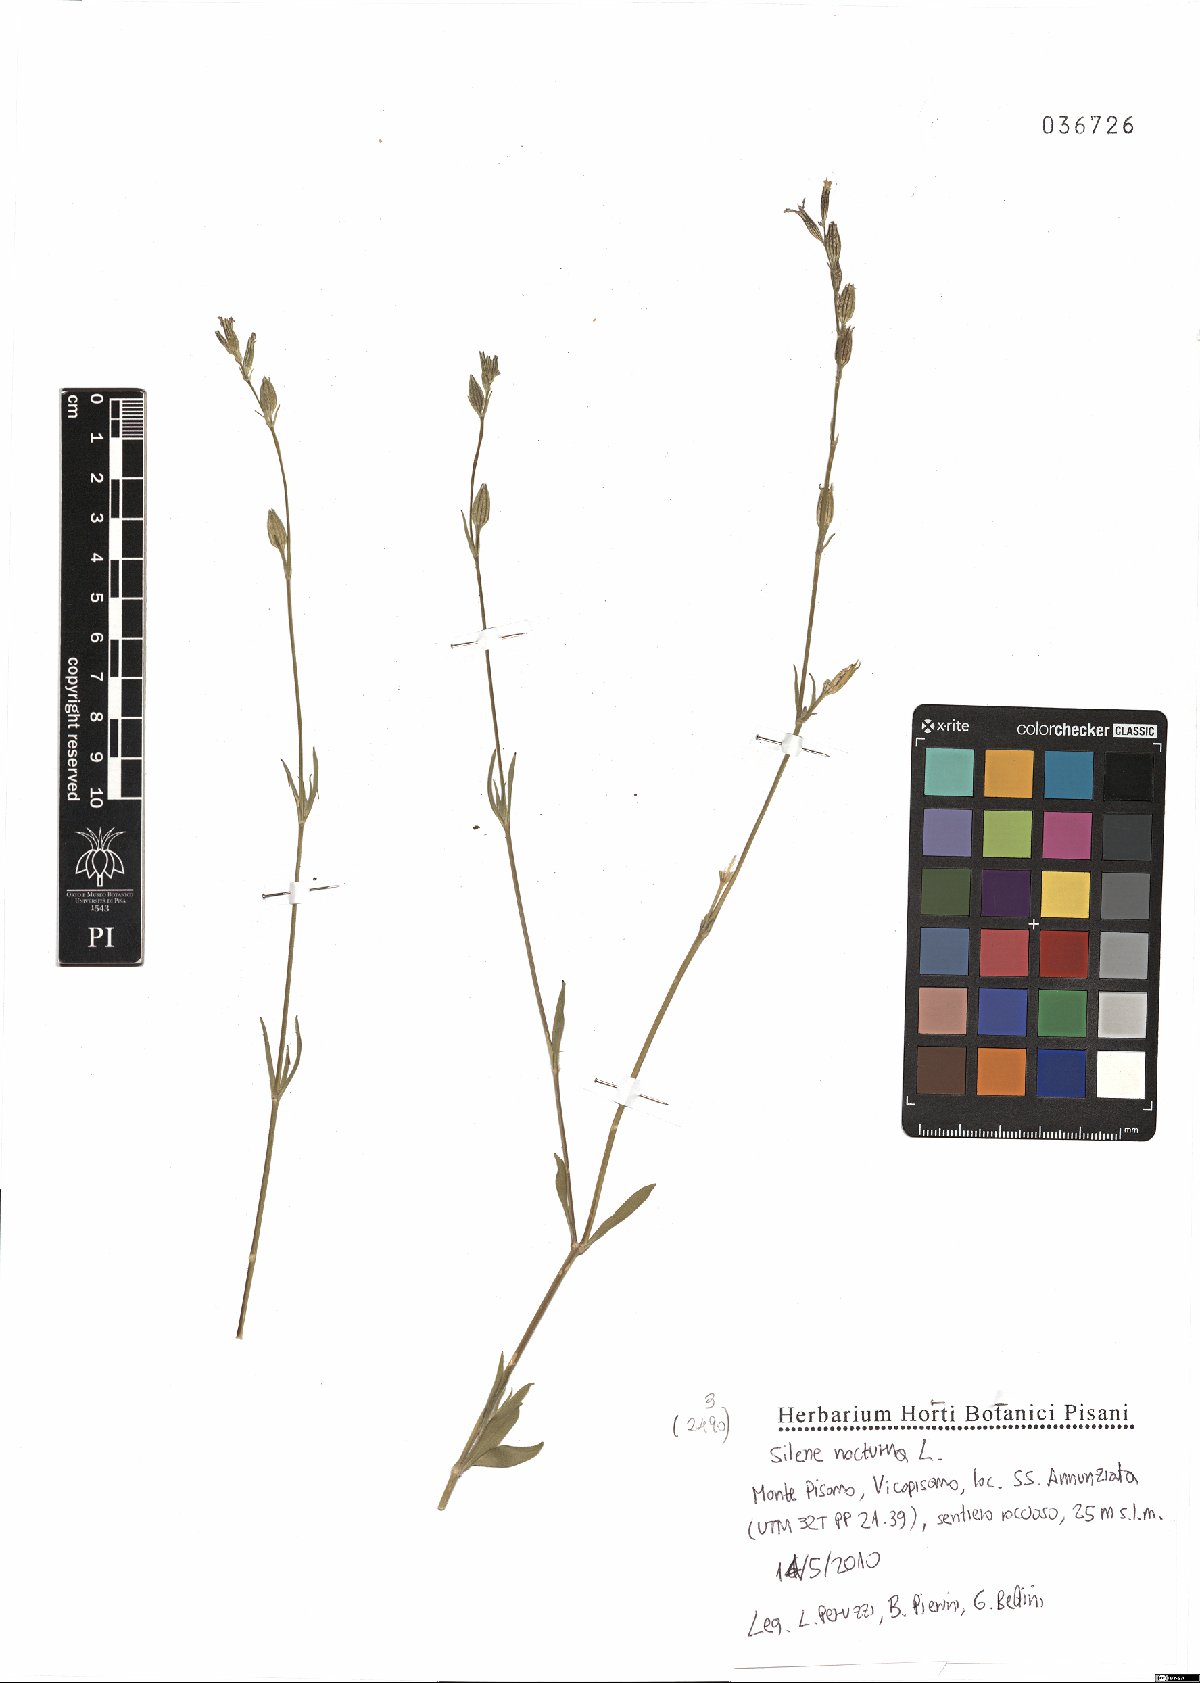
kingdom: Plantae
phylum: Tracheophyta
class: Magnoliopsida
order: Caryophyllales
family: Caryophyllaceae
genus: Silene
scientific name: Silene nocturna
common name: Mediterranean catchfly
